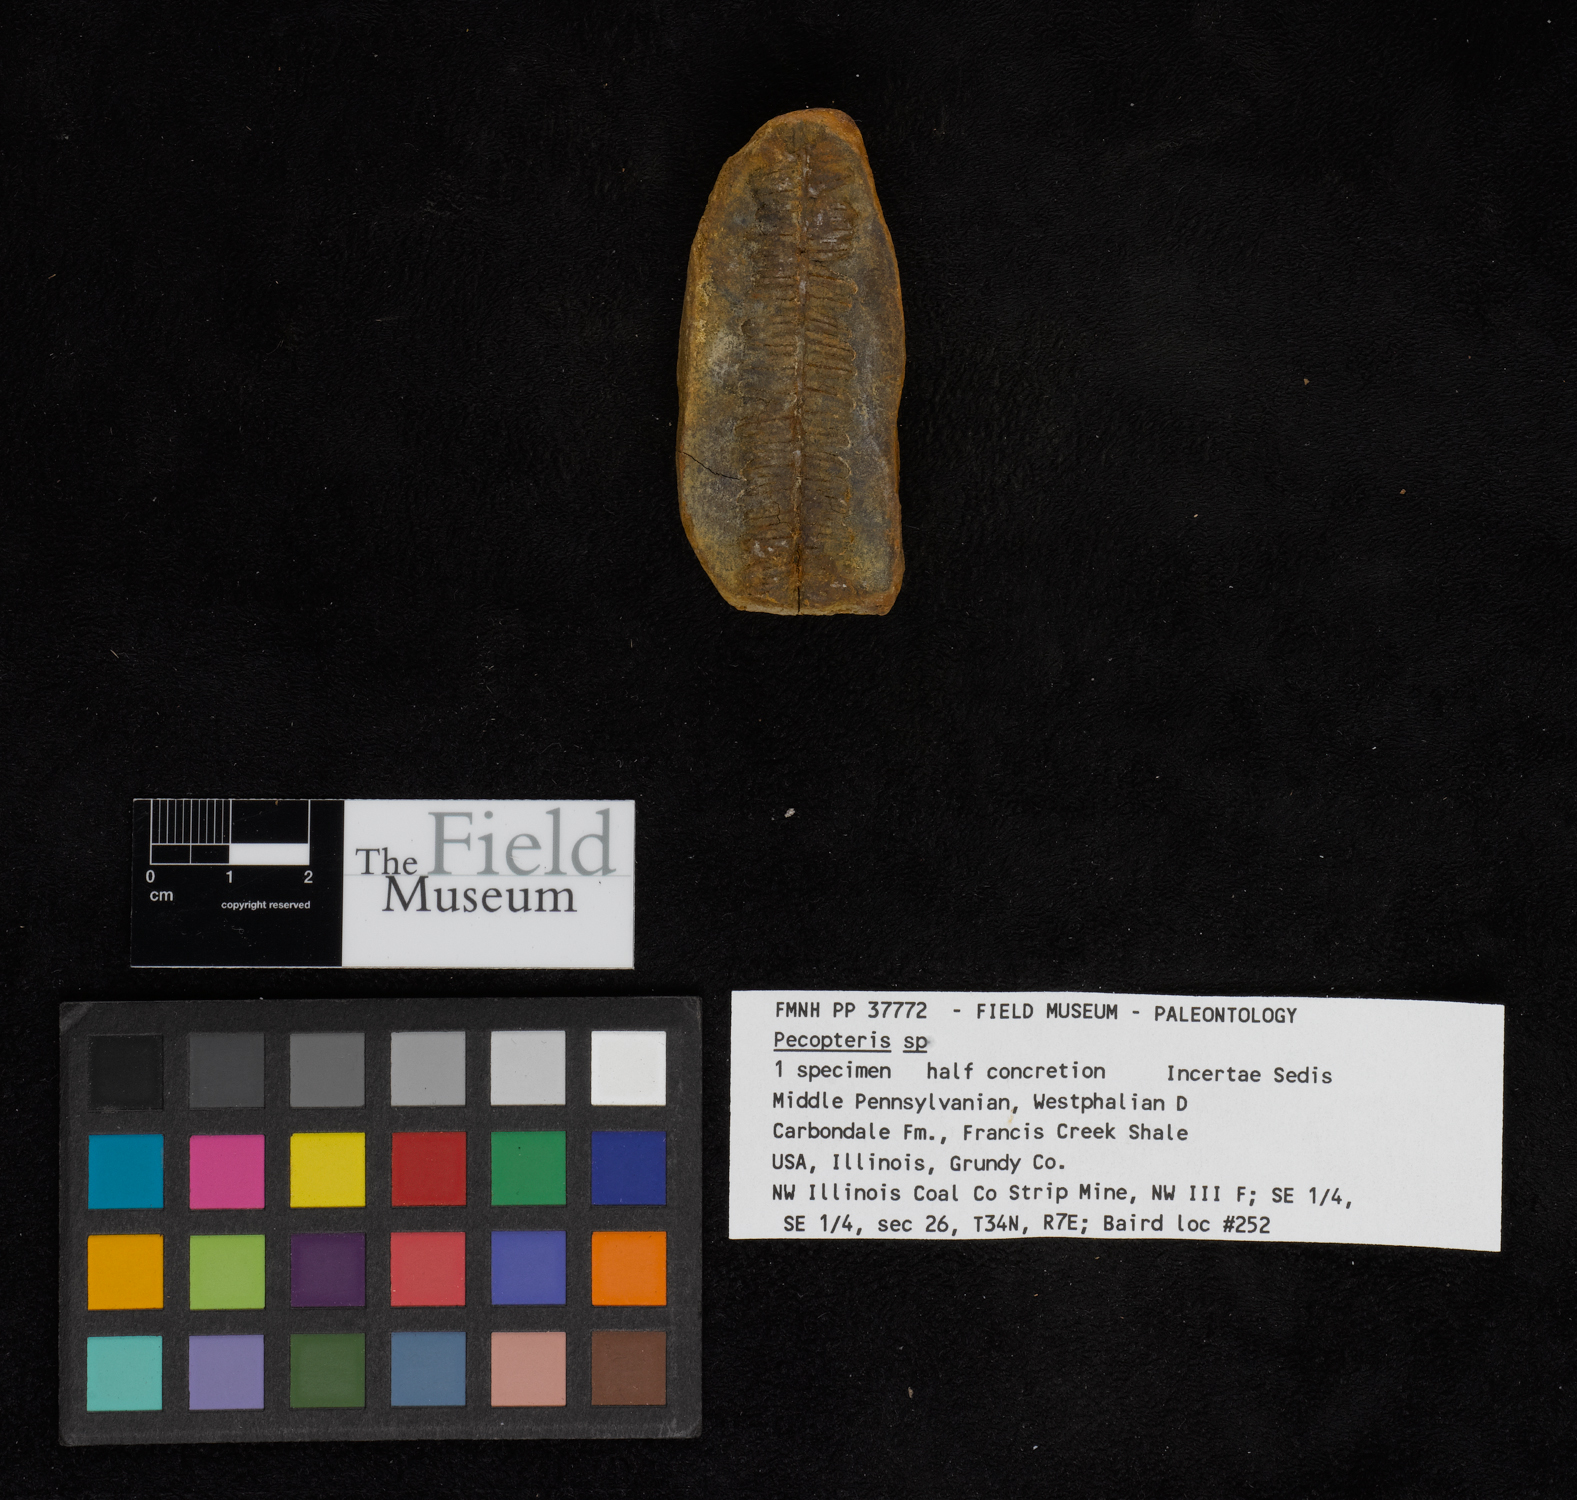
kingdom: Plantae
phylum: Tracheophyta
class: Polypodiopsida
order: Marattiales
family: Asterothecaceae
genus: Pecopteris
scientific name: Pecopteris
